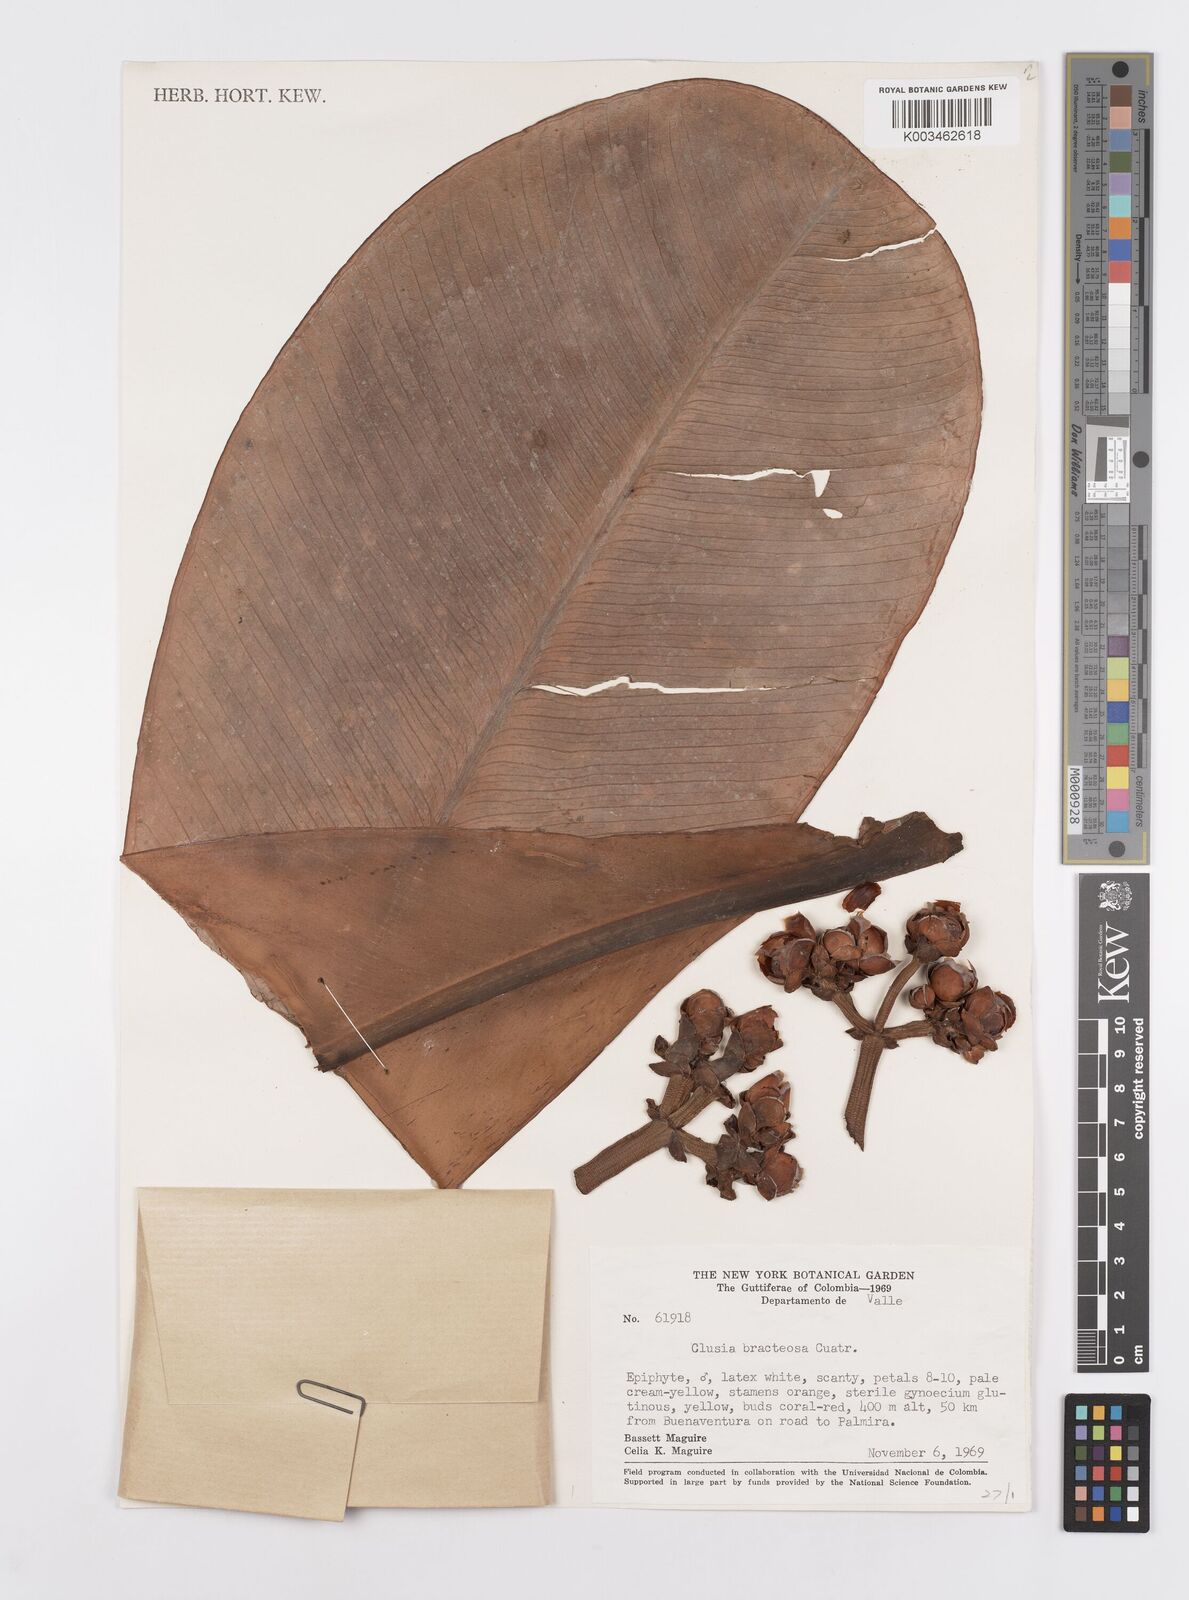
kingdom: Plantae
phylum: Tracheophyta
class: Magnoliopsida
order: Malpighiales
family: Clusiaceae
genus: Clusia
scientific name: Clusia bracteosa
